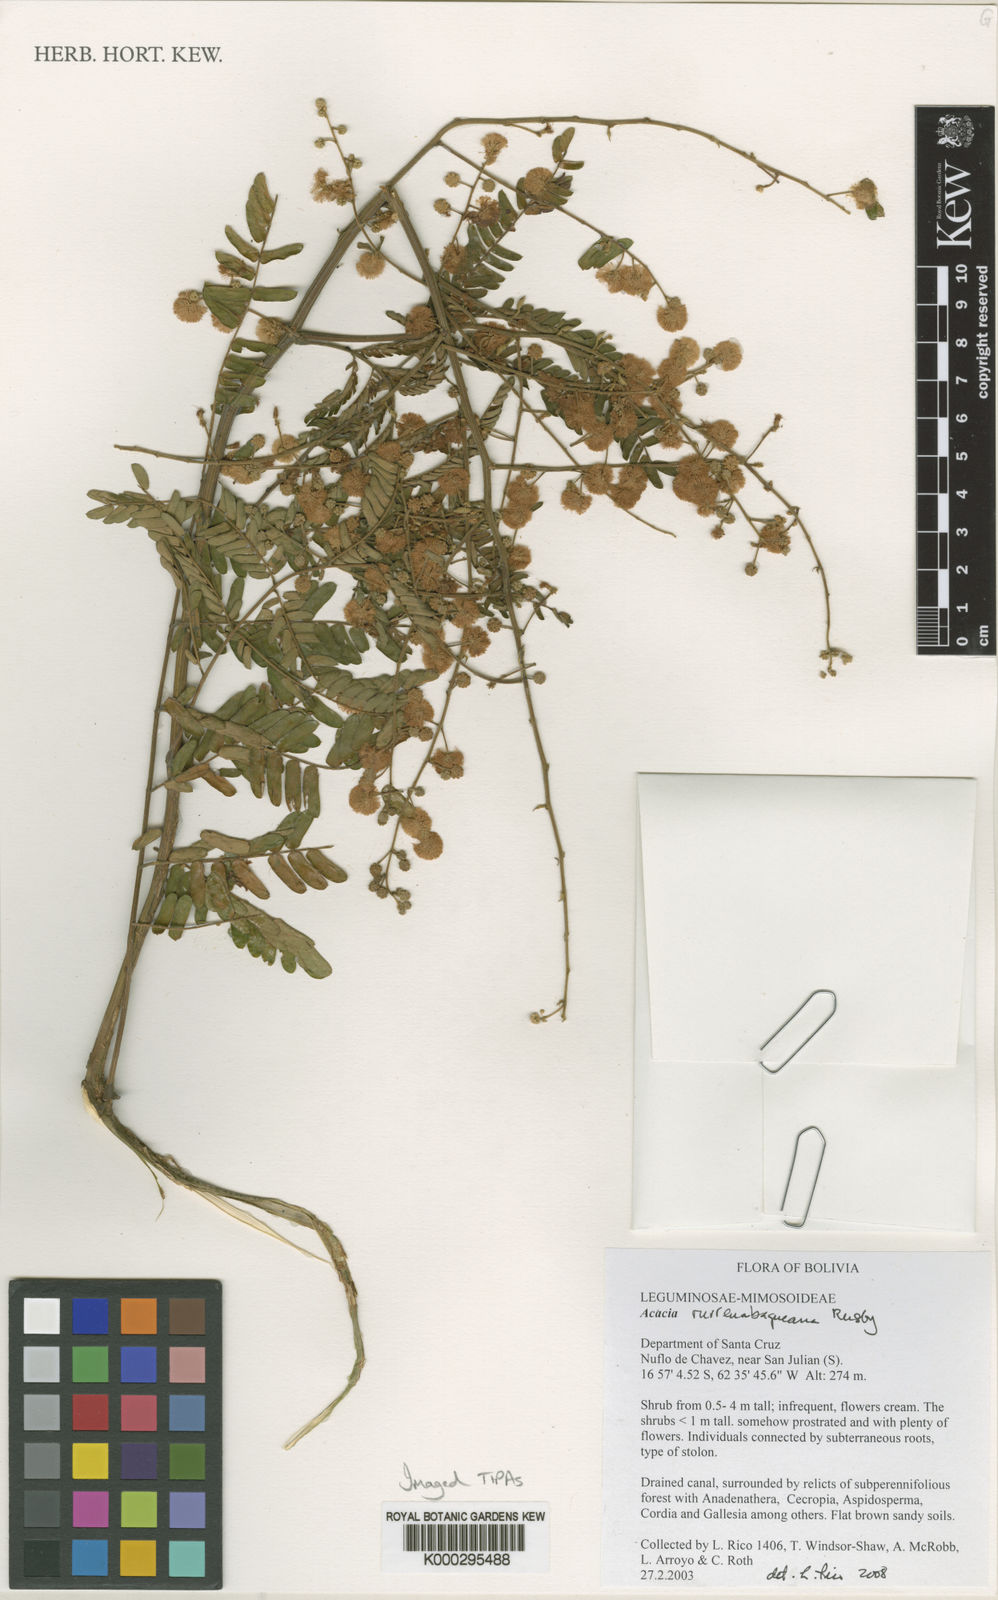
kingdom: Plantae
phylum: Tracheophyta
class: Magnoliopsida
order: Fabales
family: Fabaceae
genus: Parasenegalia
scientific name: Parasenegalia rurrenabaqueana
